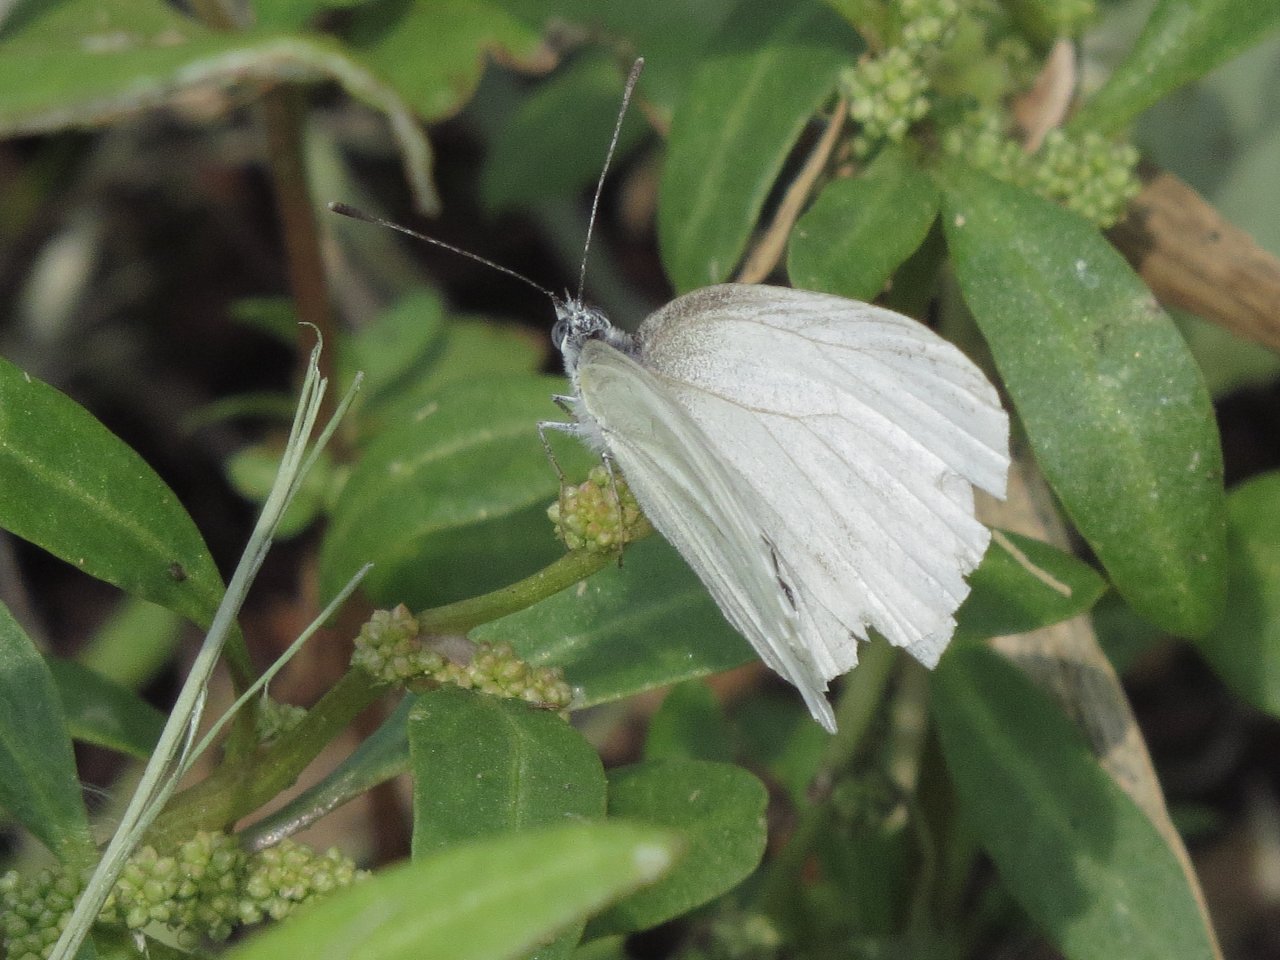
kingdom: Animalia
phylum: Arthropoda
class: Insecta
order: Lepidoptera
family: Pieridae
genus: Pieris
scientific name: Pieris oleracea
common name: Mustard White
